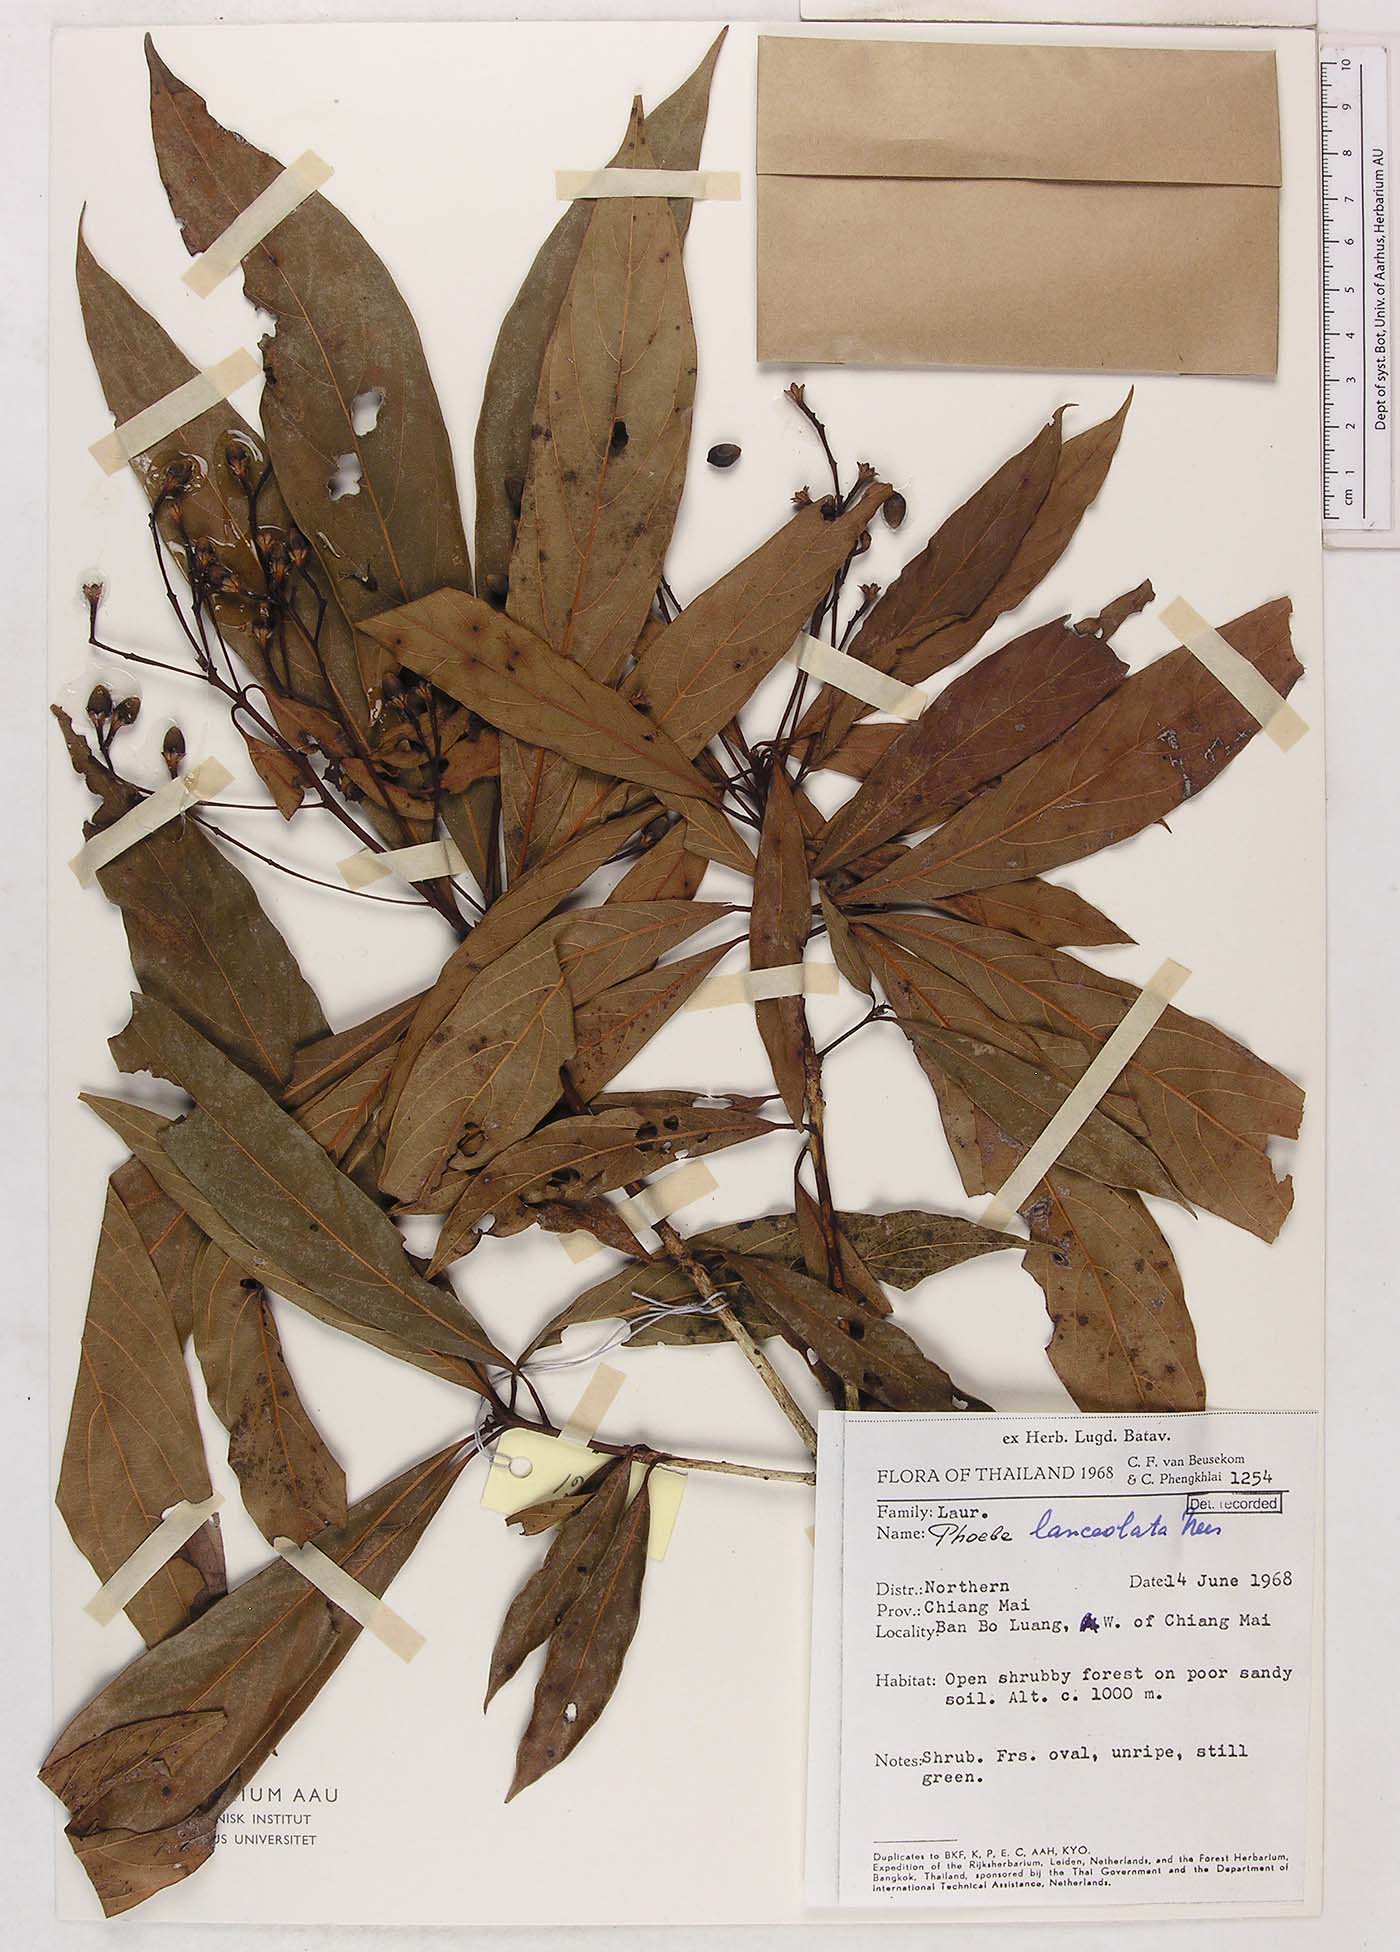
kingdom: Plantae
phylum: Tracheophyta
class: Magnoliopsida
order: Laurales
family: Lauraceae
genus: Phoebe
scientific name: Phoebe lanceolata
